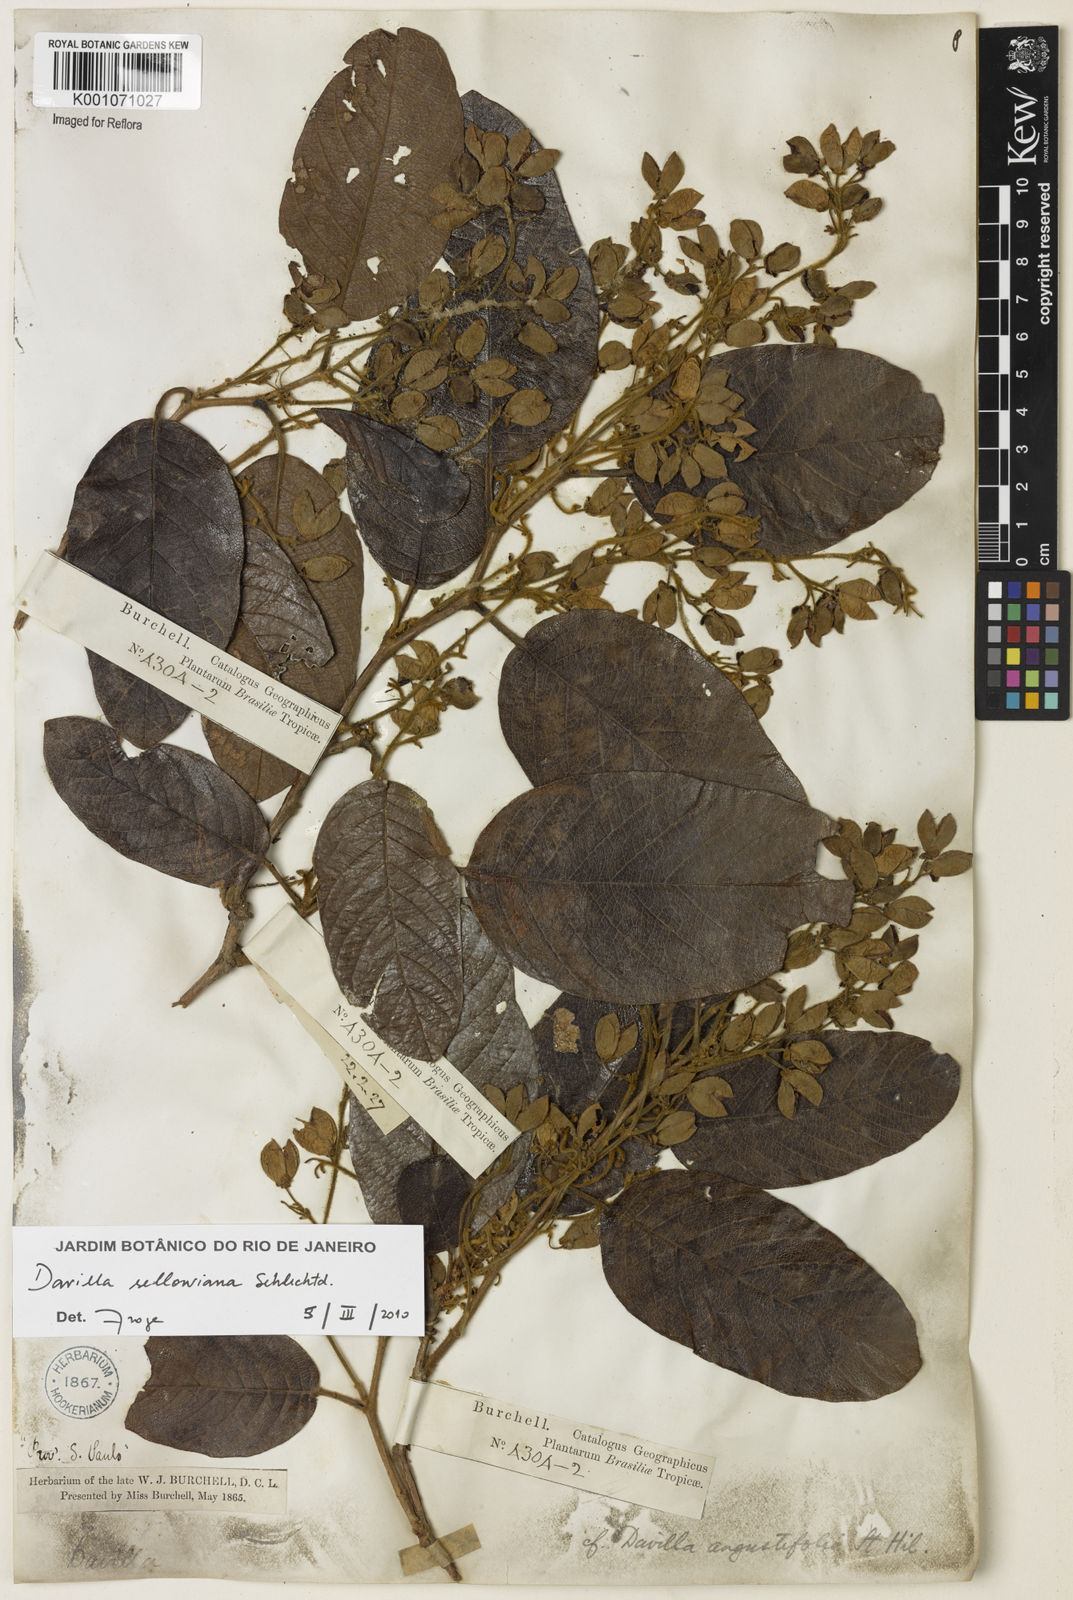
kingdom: Plantae
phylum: Tracheophyta
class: Magnoliopsida
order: Dilleniales
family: Dilleniaceae
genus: Davilla
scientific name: Davilla sellowiana
